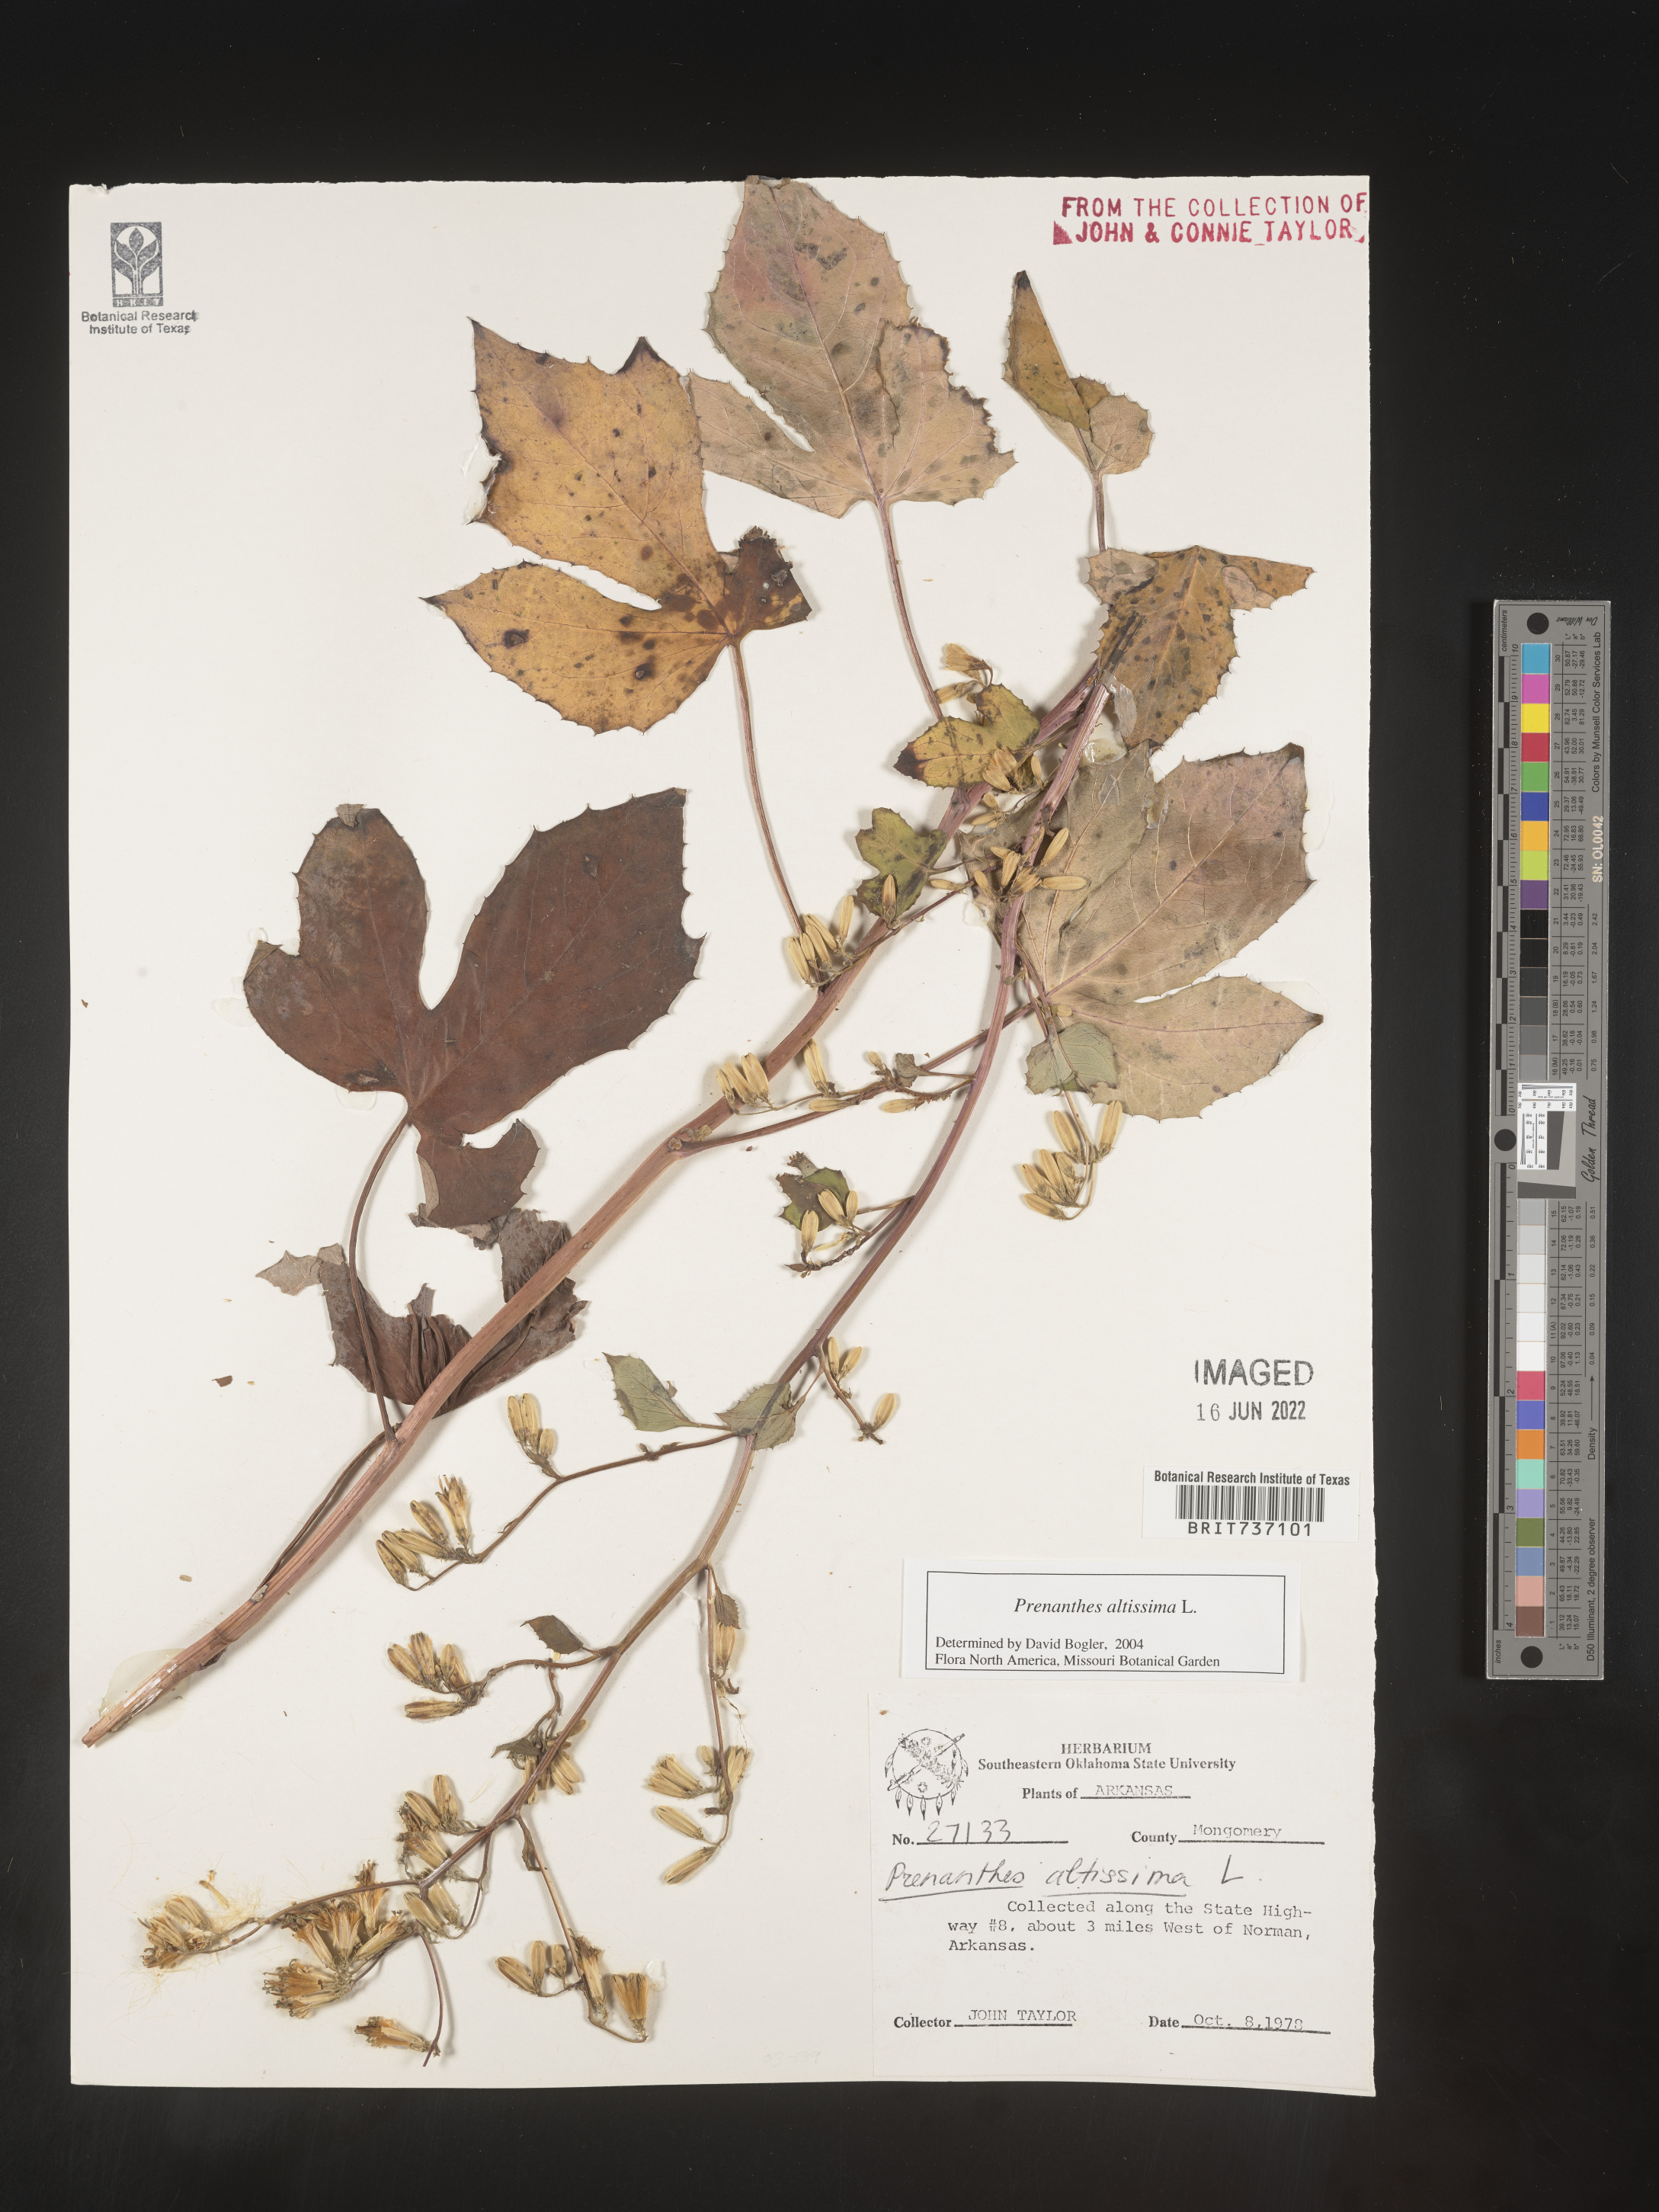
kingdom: Plantae
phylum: Tracheophyta
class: Magnoliopsida
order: Asterales
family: Asteraceae
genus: Lactuca
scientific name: Lactuca quercina
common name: Wild lettuce
